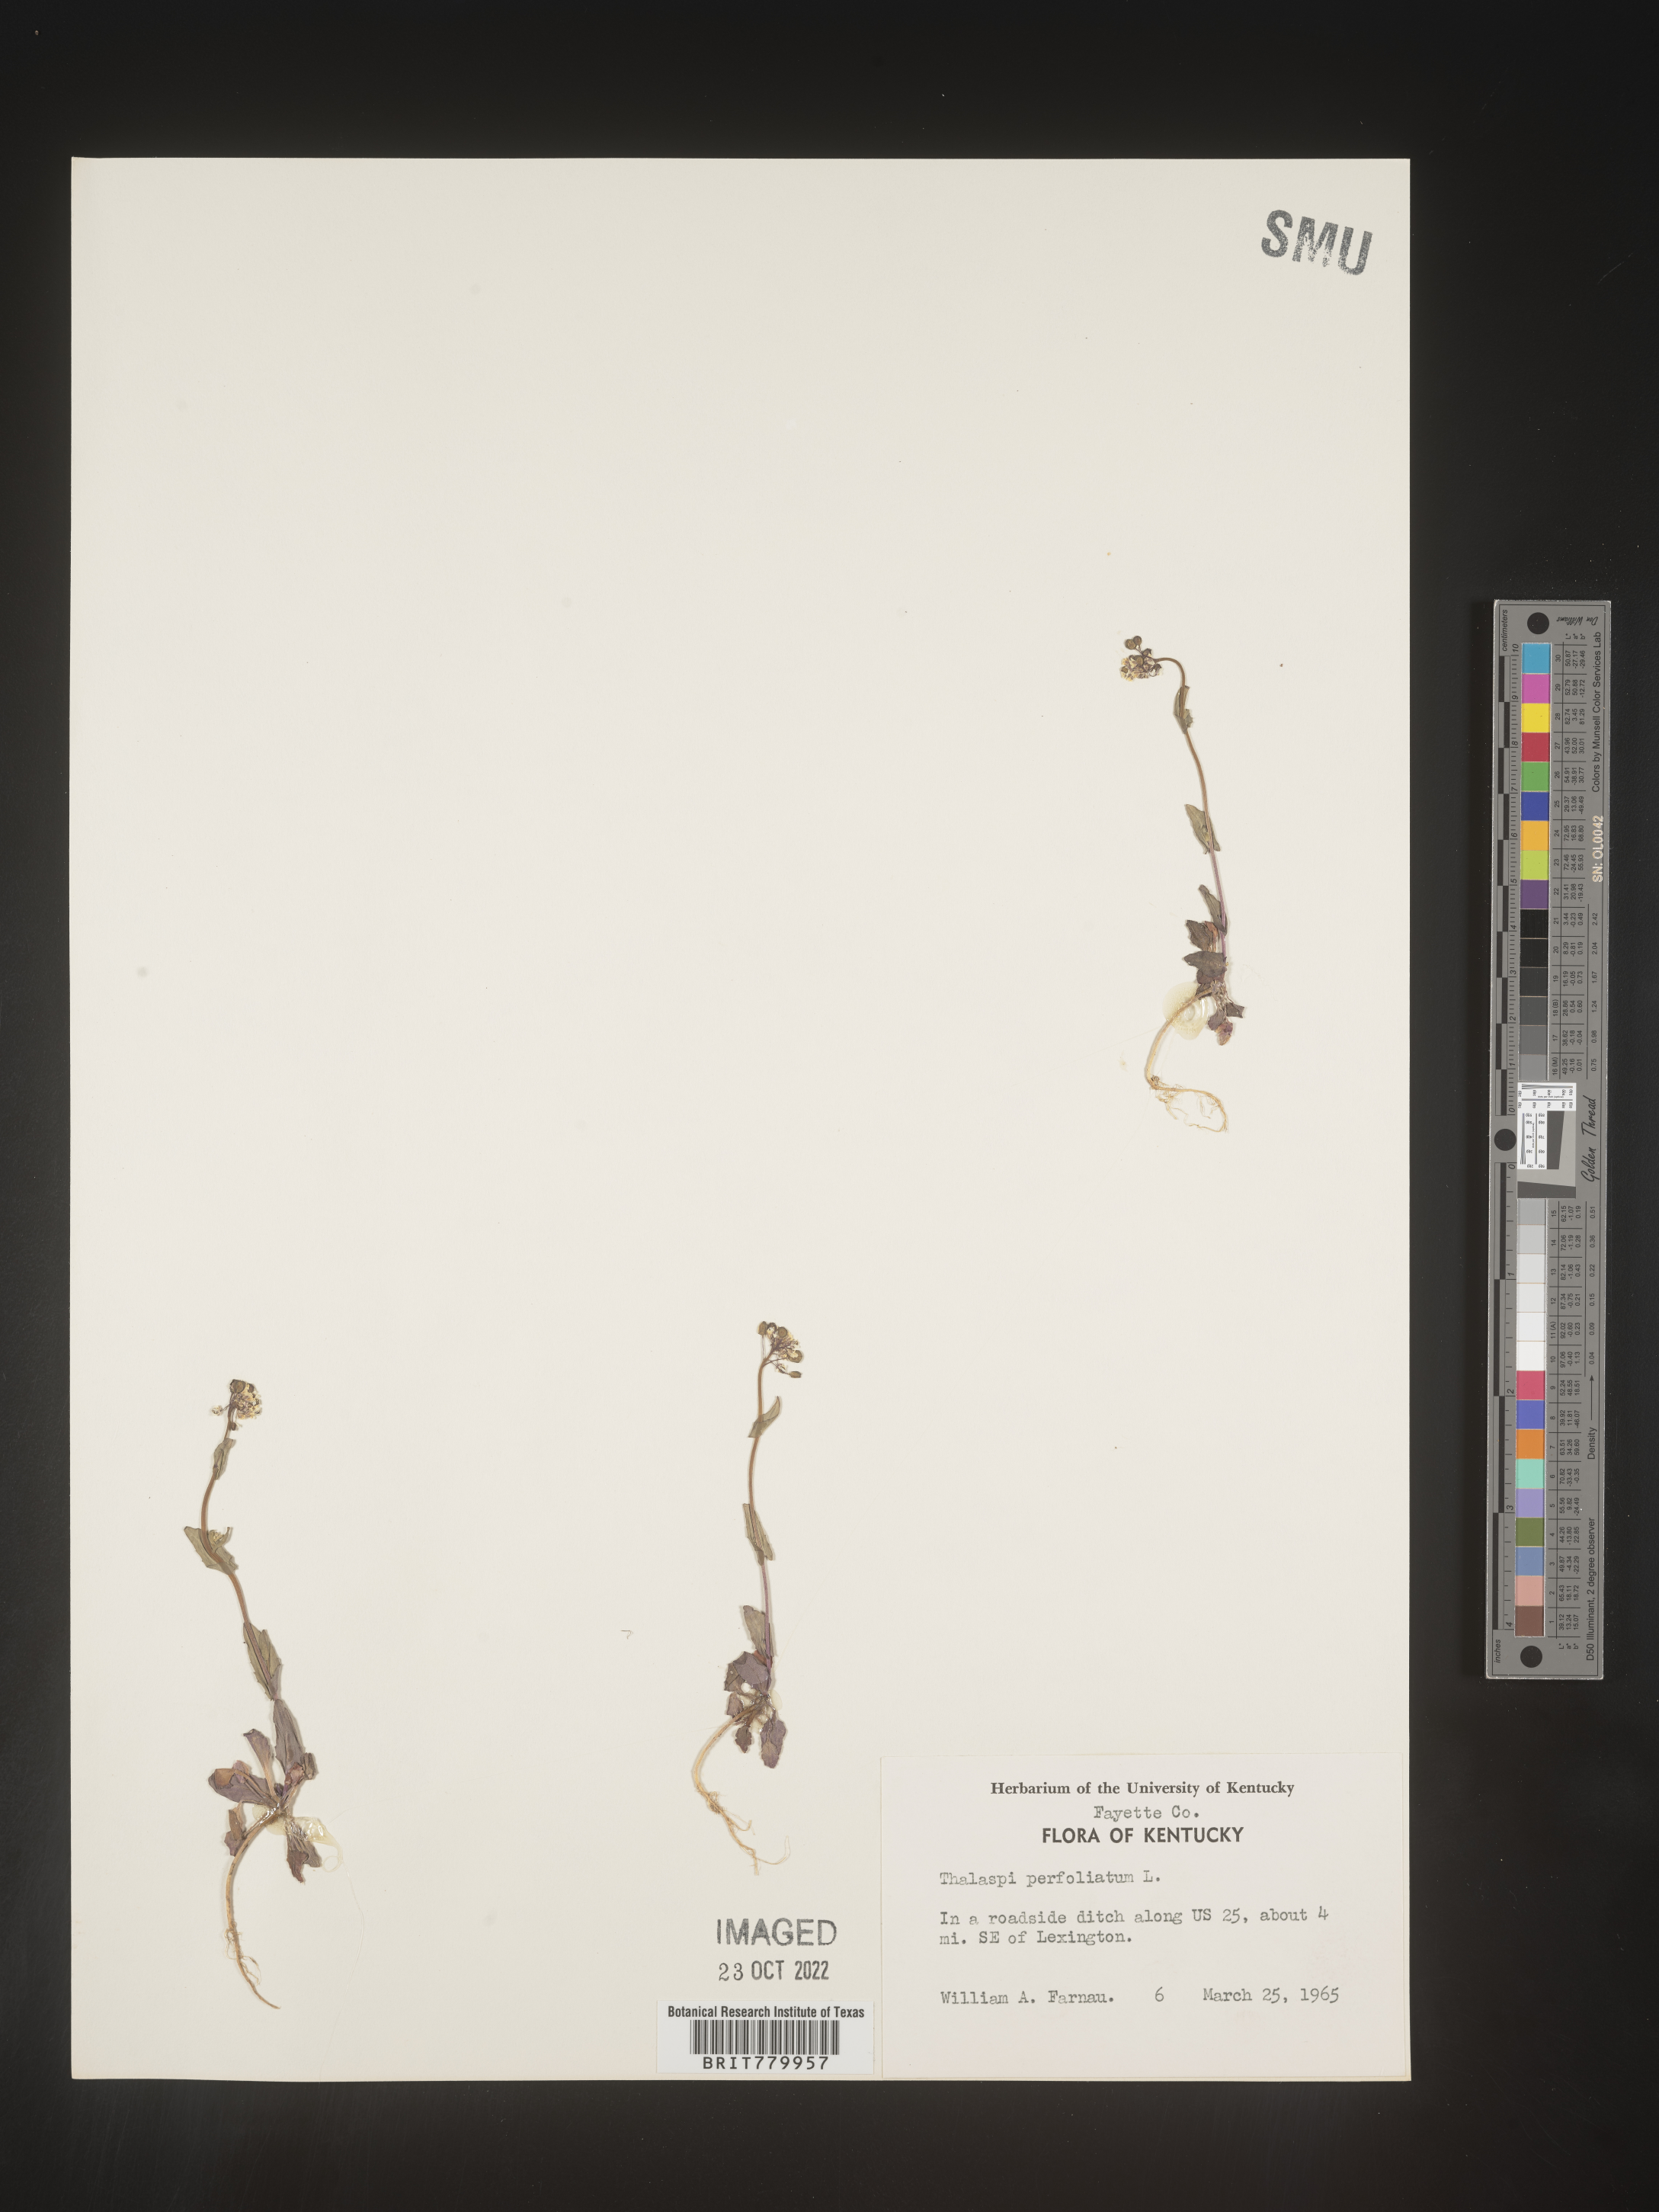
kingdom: Plantae
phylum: Tracheophyta
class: Magnoliopsida
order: Brassicales
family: Brassicaceae
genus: Thlaspi
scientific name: Thlaspi
